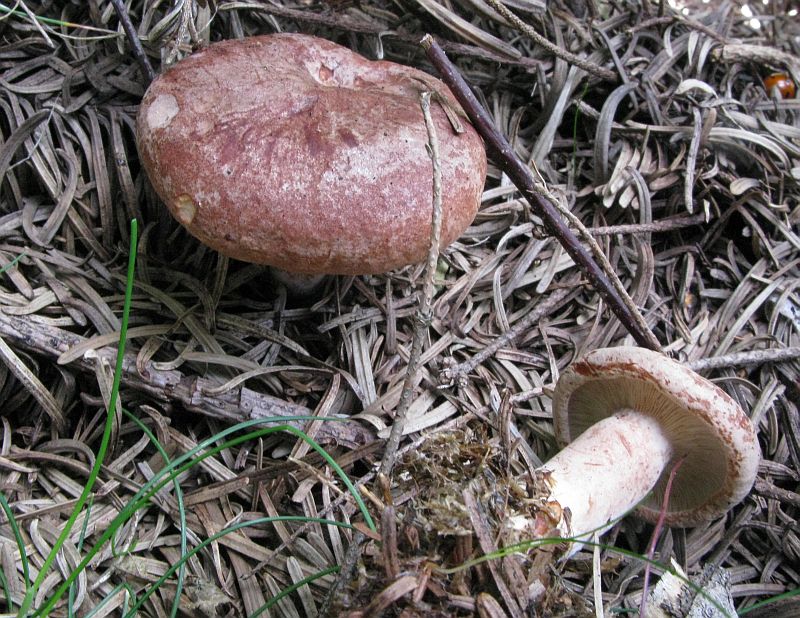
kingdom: Fungi
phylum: Basidiomycota
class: Agaricomycetes
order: Russulales
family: Russulaceae
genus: Lactarius
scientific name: Lactarius rufus
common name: rødbrun mælkehat
